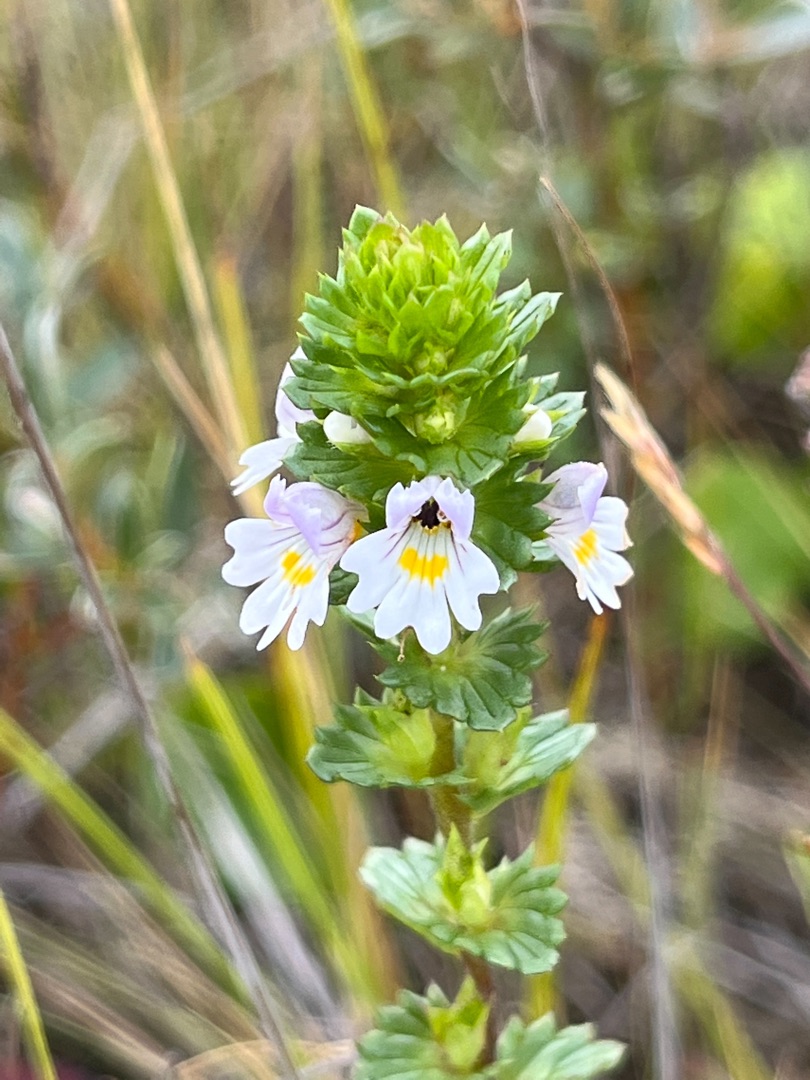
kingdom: Plantae
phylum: Tracheophyta
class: Magnoliopsida
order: Lamiales
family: Orobanchaceae
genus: Euphrasia
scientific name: Euphrasia arctica
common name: Nordisk øjentrøst
